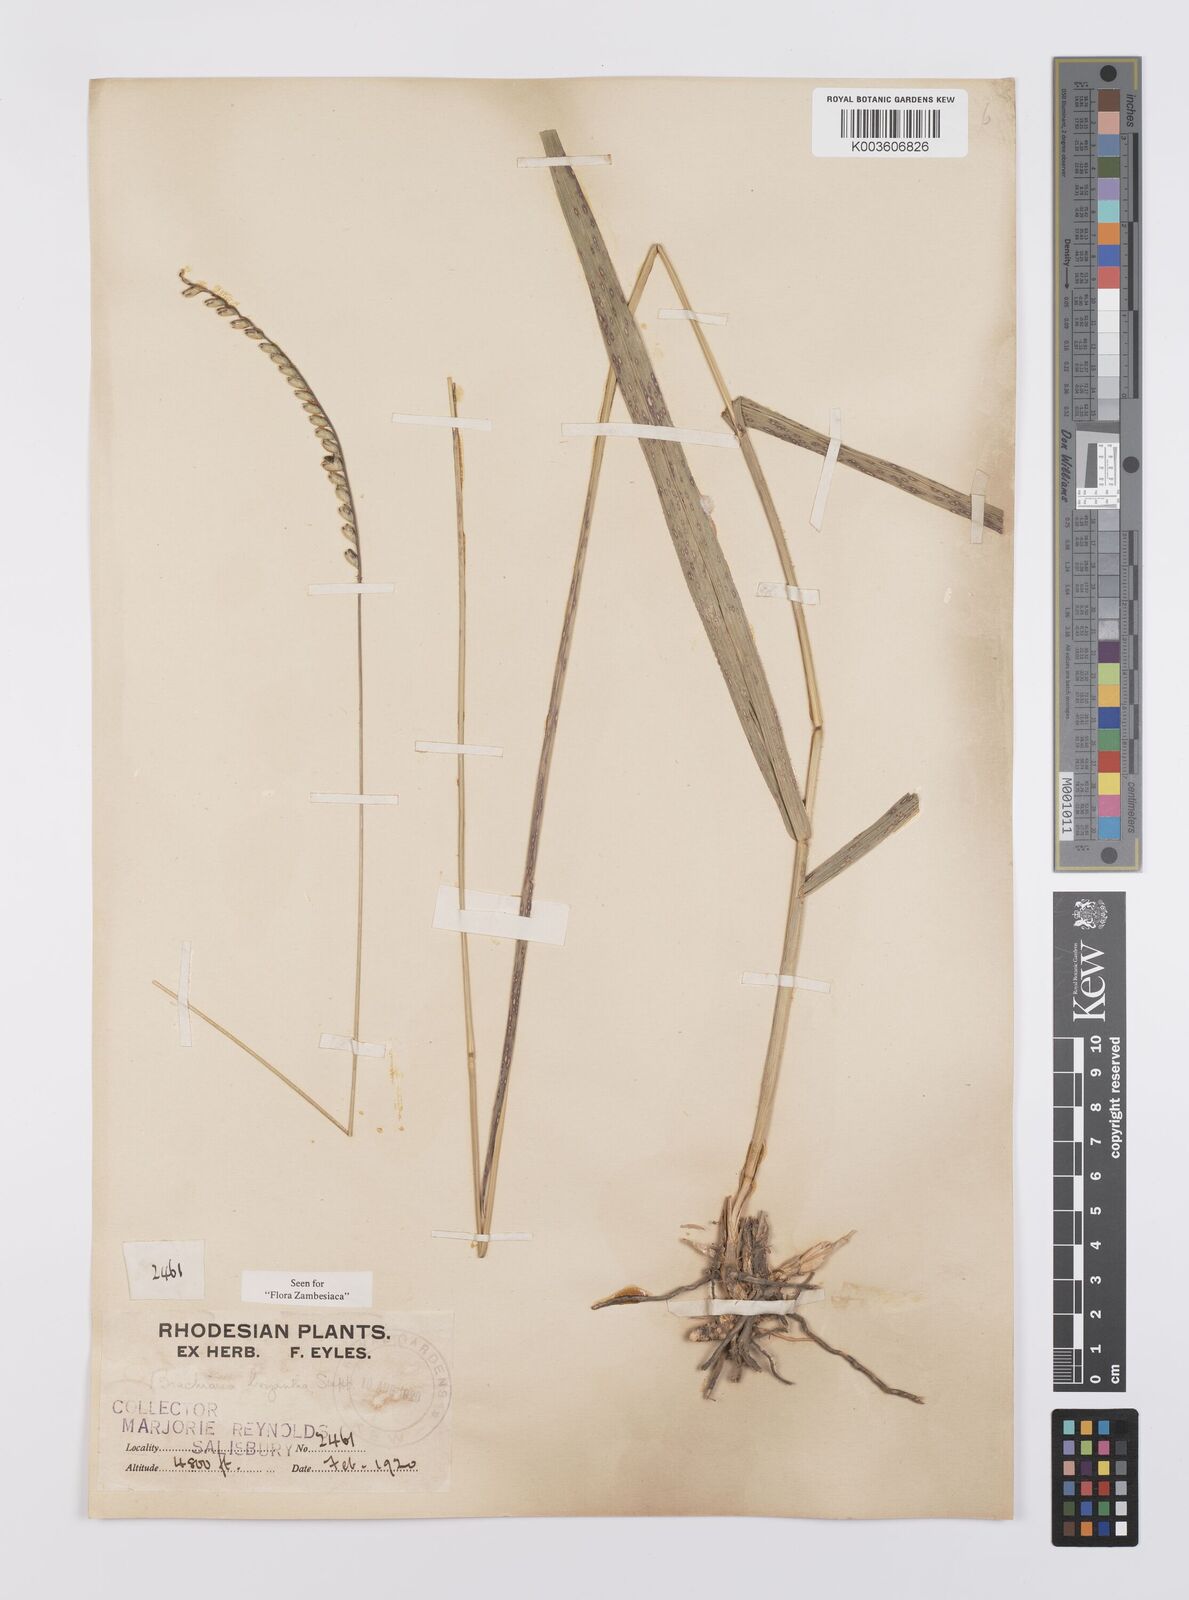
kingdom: Plantae
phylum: Tracheophyta
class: Liliopsida
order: Poales
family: Poaceae
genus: Urochloa
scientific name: Urochloa brizantha
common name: Palisade signalgrass
